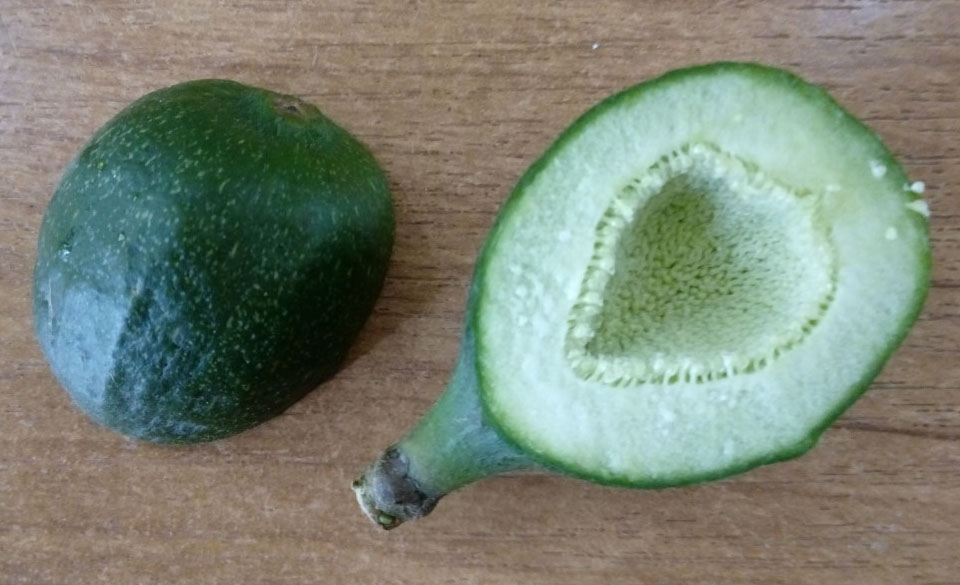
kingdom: Plantae
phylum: Tracheophyta
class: Magnoliopsida
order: Rosales
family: Moraceae
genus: Ficus
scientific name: Ficus carica
